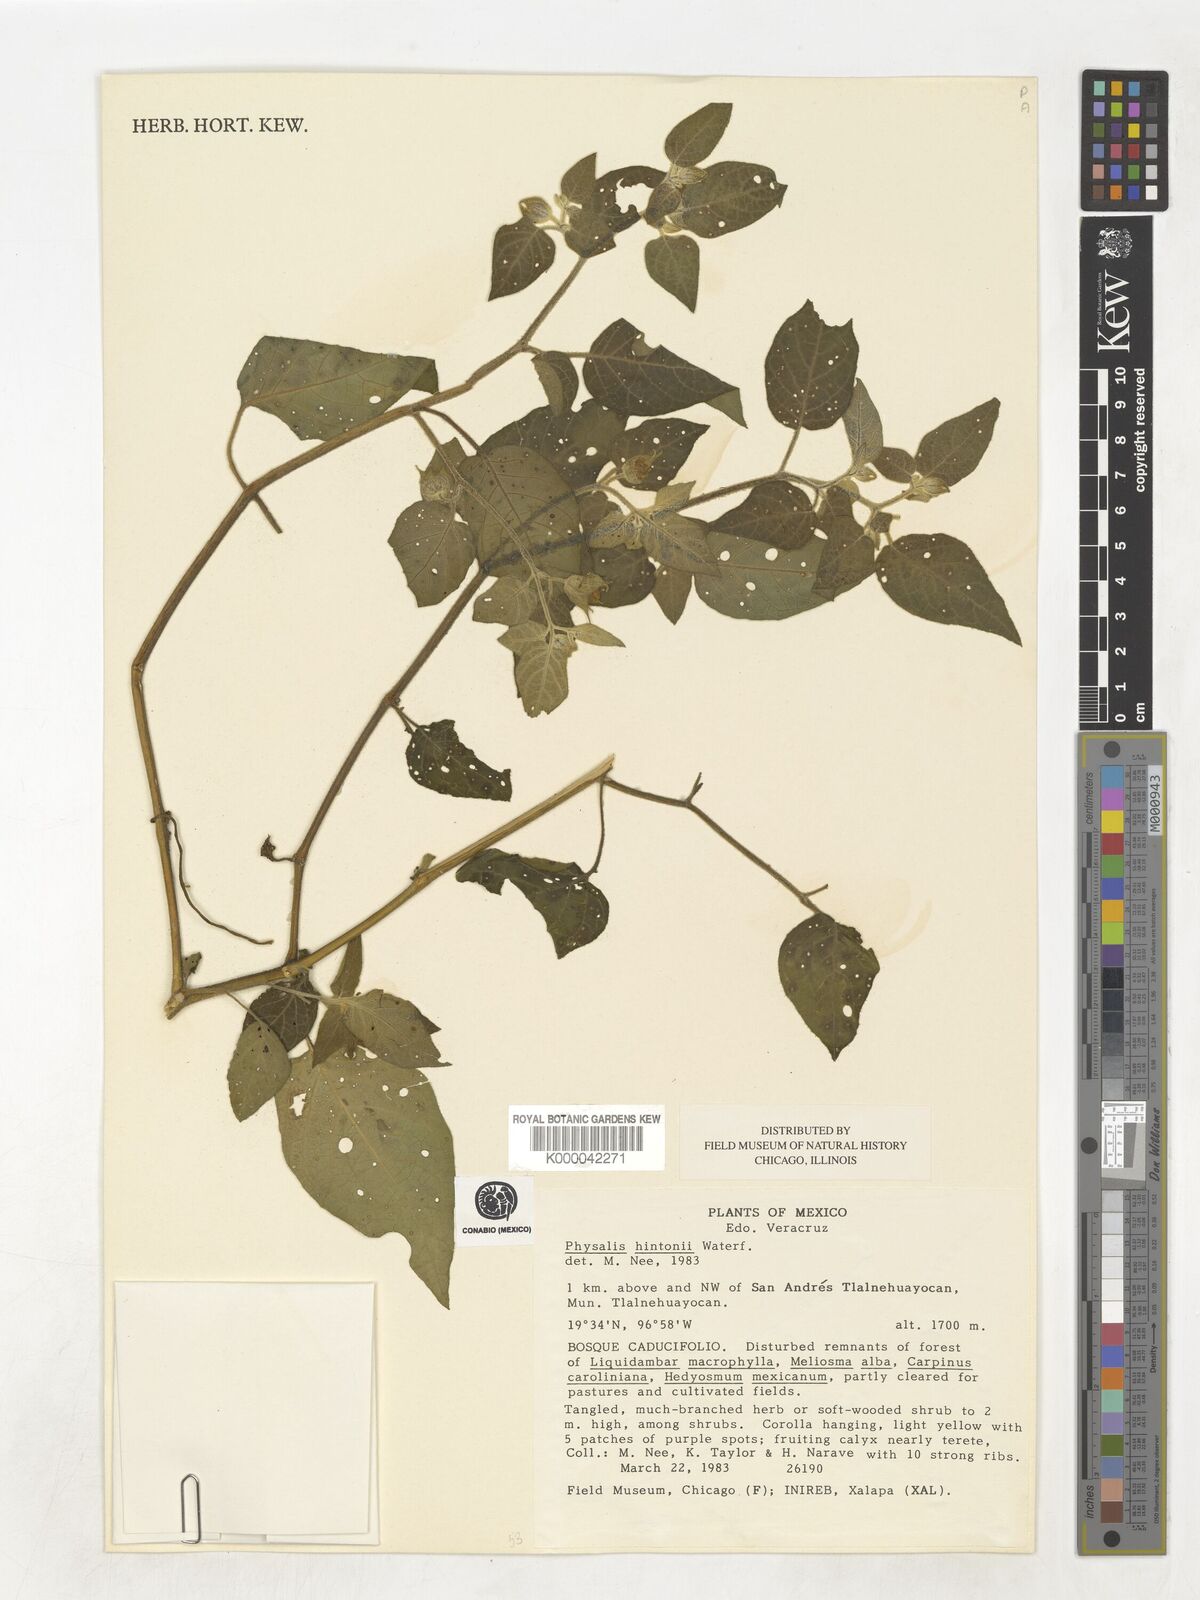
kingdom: Plantae
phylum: Tracheophyta
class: Magnoliopsida
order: Solanales
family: Solanaceae
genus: Physalis
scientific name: Physalis hintonii
